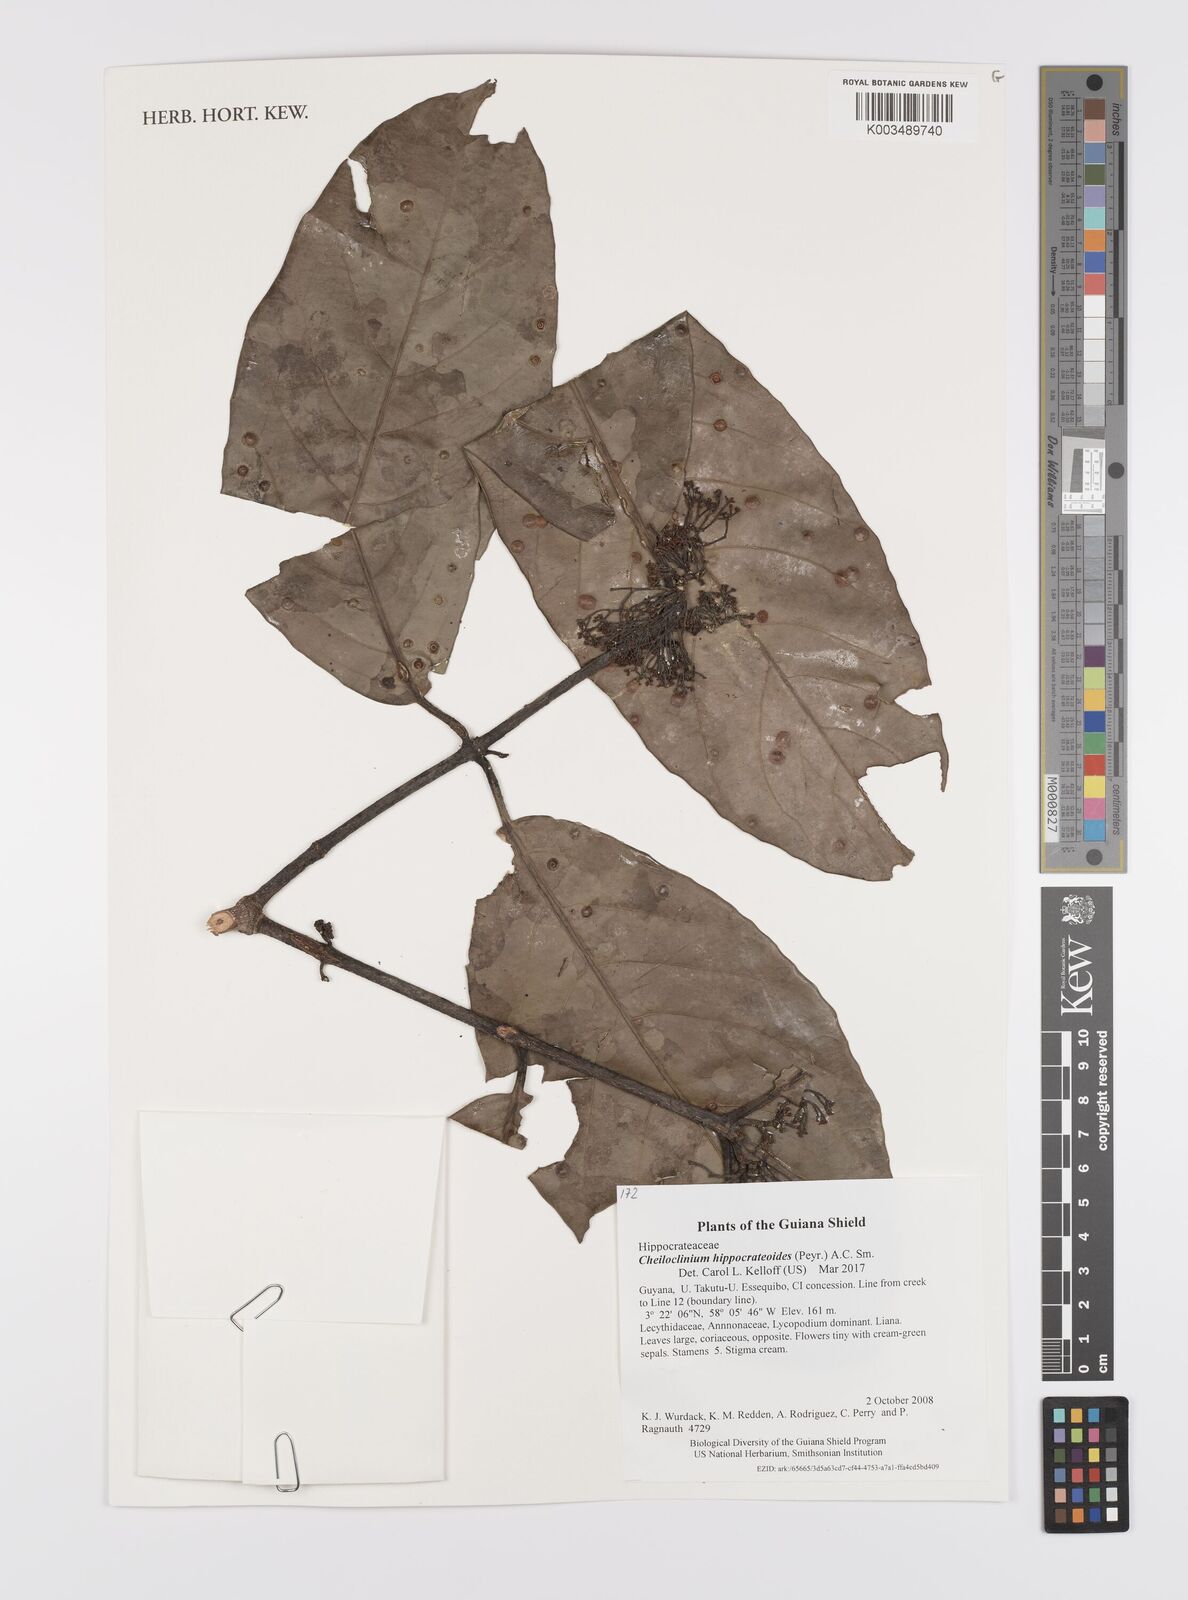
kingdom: Plantae
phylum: Tracheophyta
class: Magnoliopsida
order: Celastrales
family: Celastraceae
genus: Cheiloclinium
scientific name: Cheiloclinium hippocrateoides
